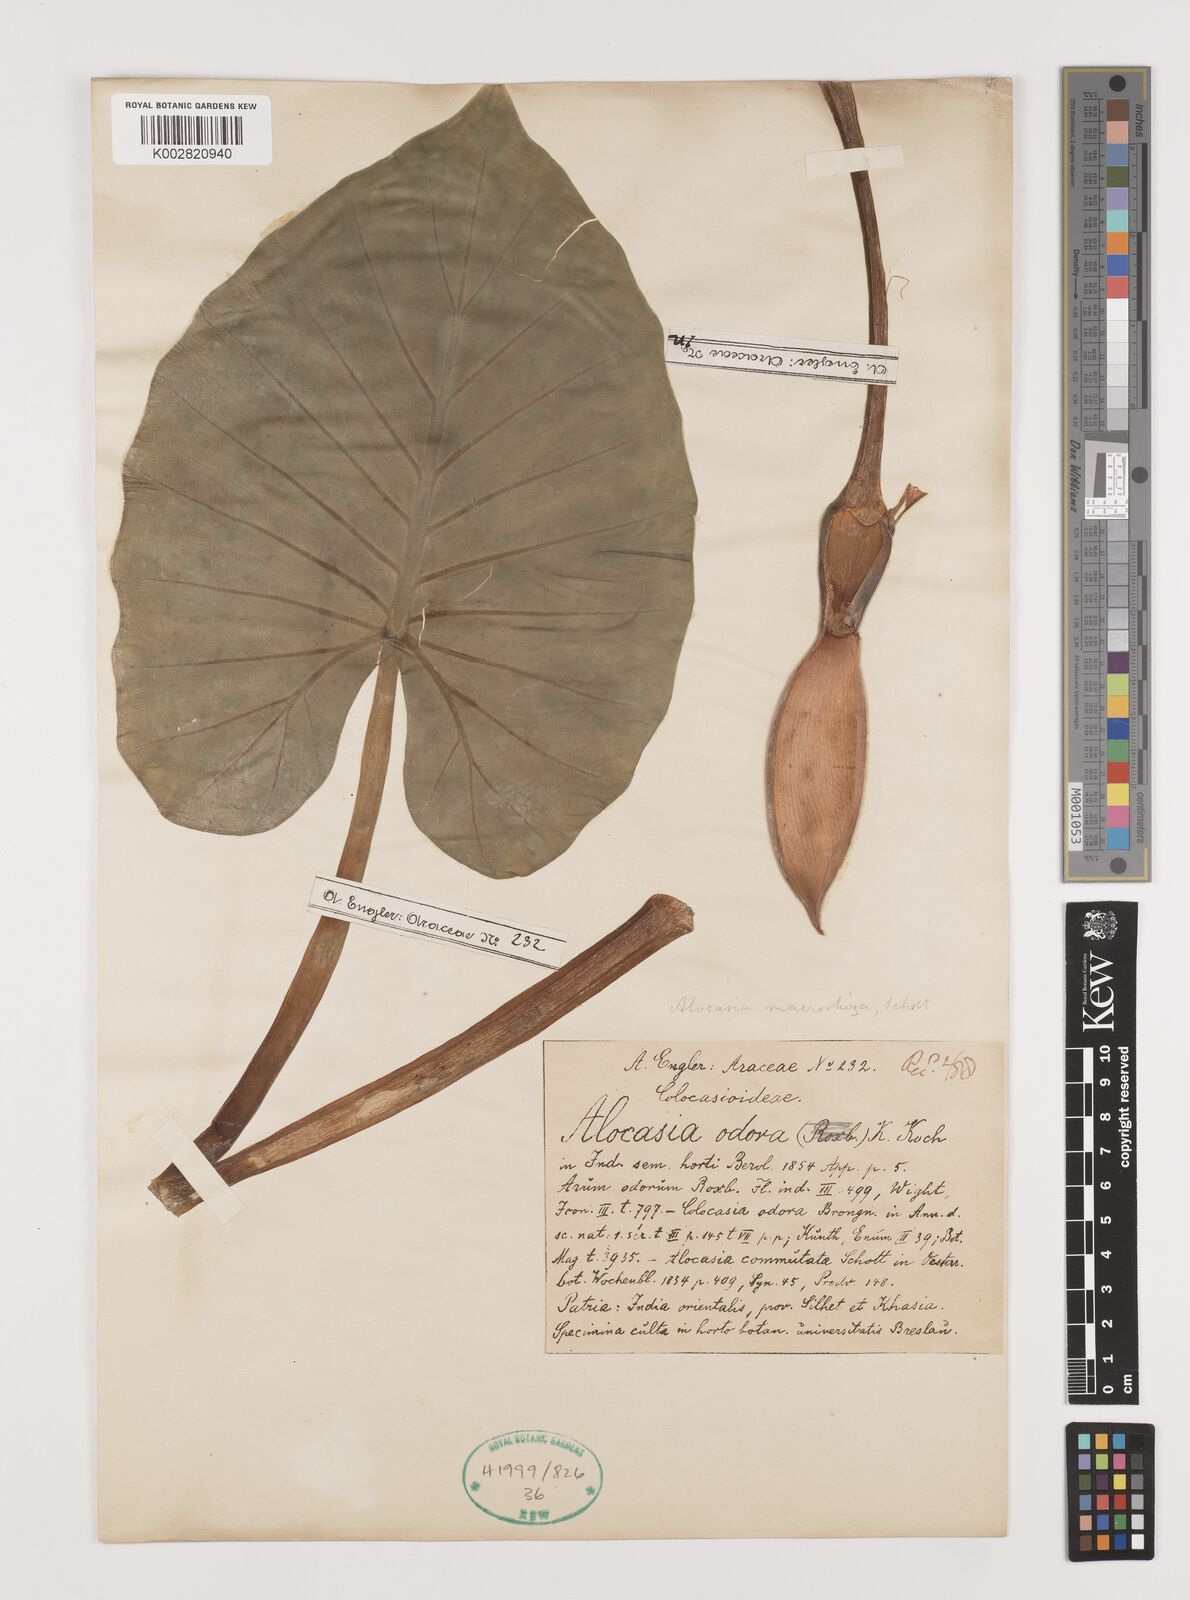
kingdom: Plantae
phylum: Tracheophyta
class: Liliopsida
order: Alismatales
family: Araceae
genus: Alocasia
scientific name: Alocasia macrorrhizos
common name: Giant taro
